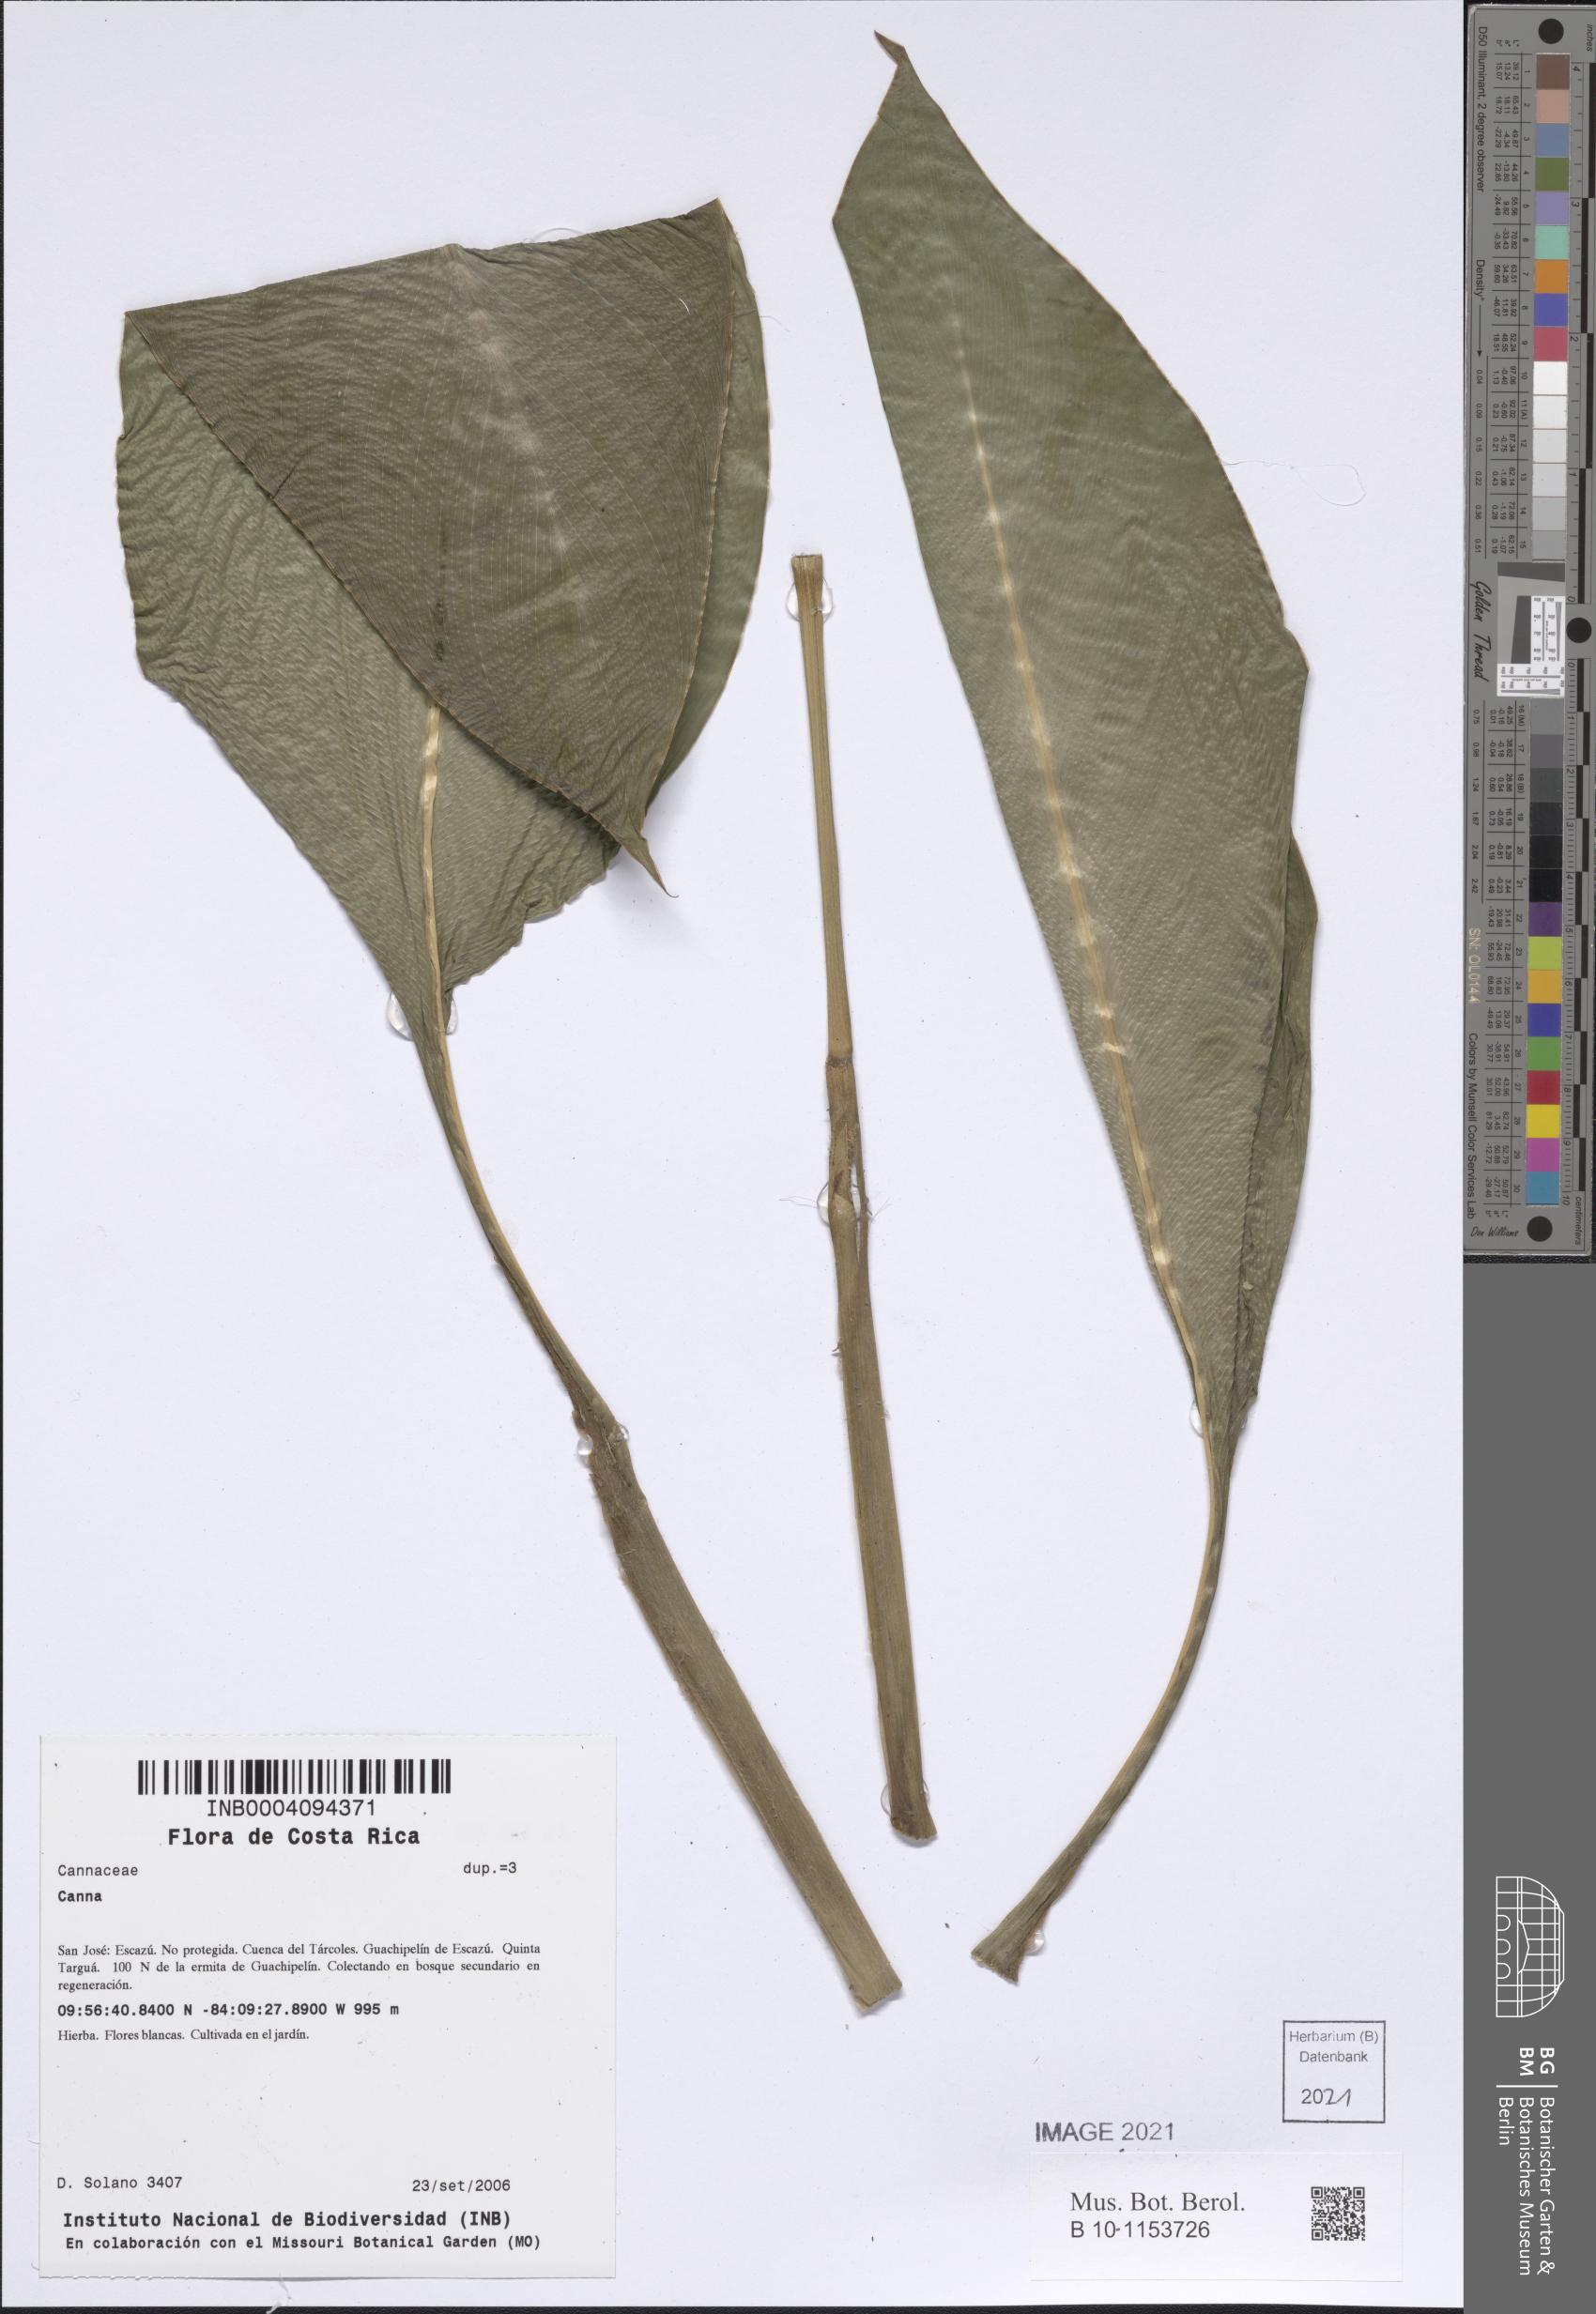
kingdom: Plantae
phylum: Tracheophyta
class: Liliopsida
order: Zingiberales
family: Cannaceae
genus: Canna
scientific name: Canna
